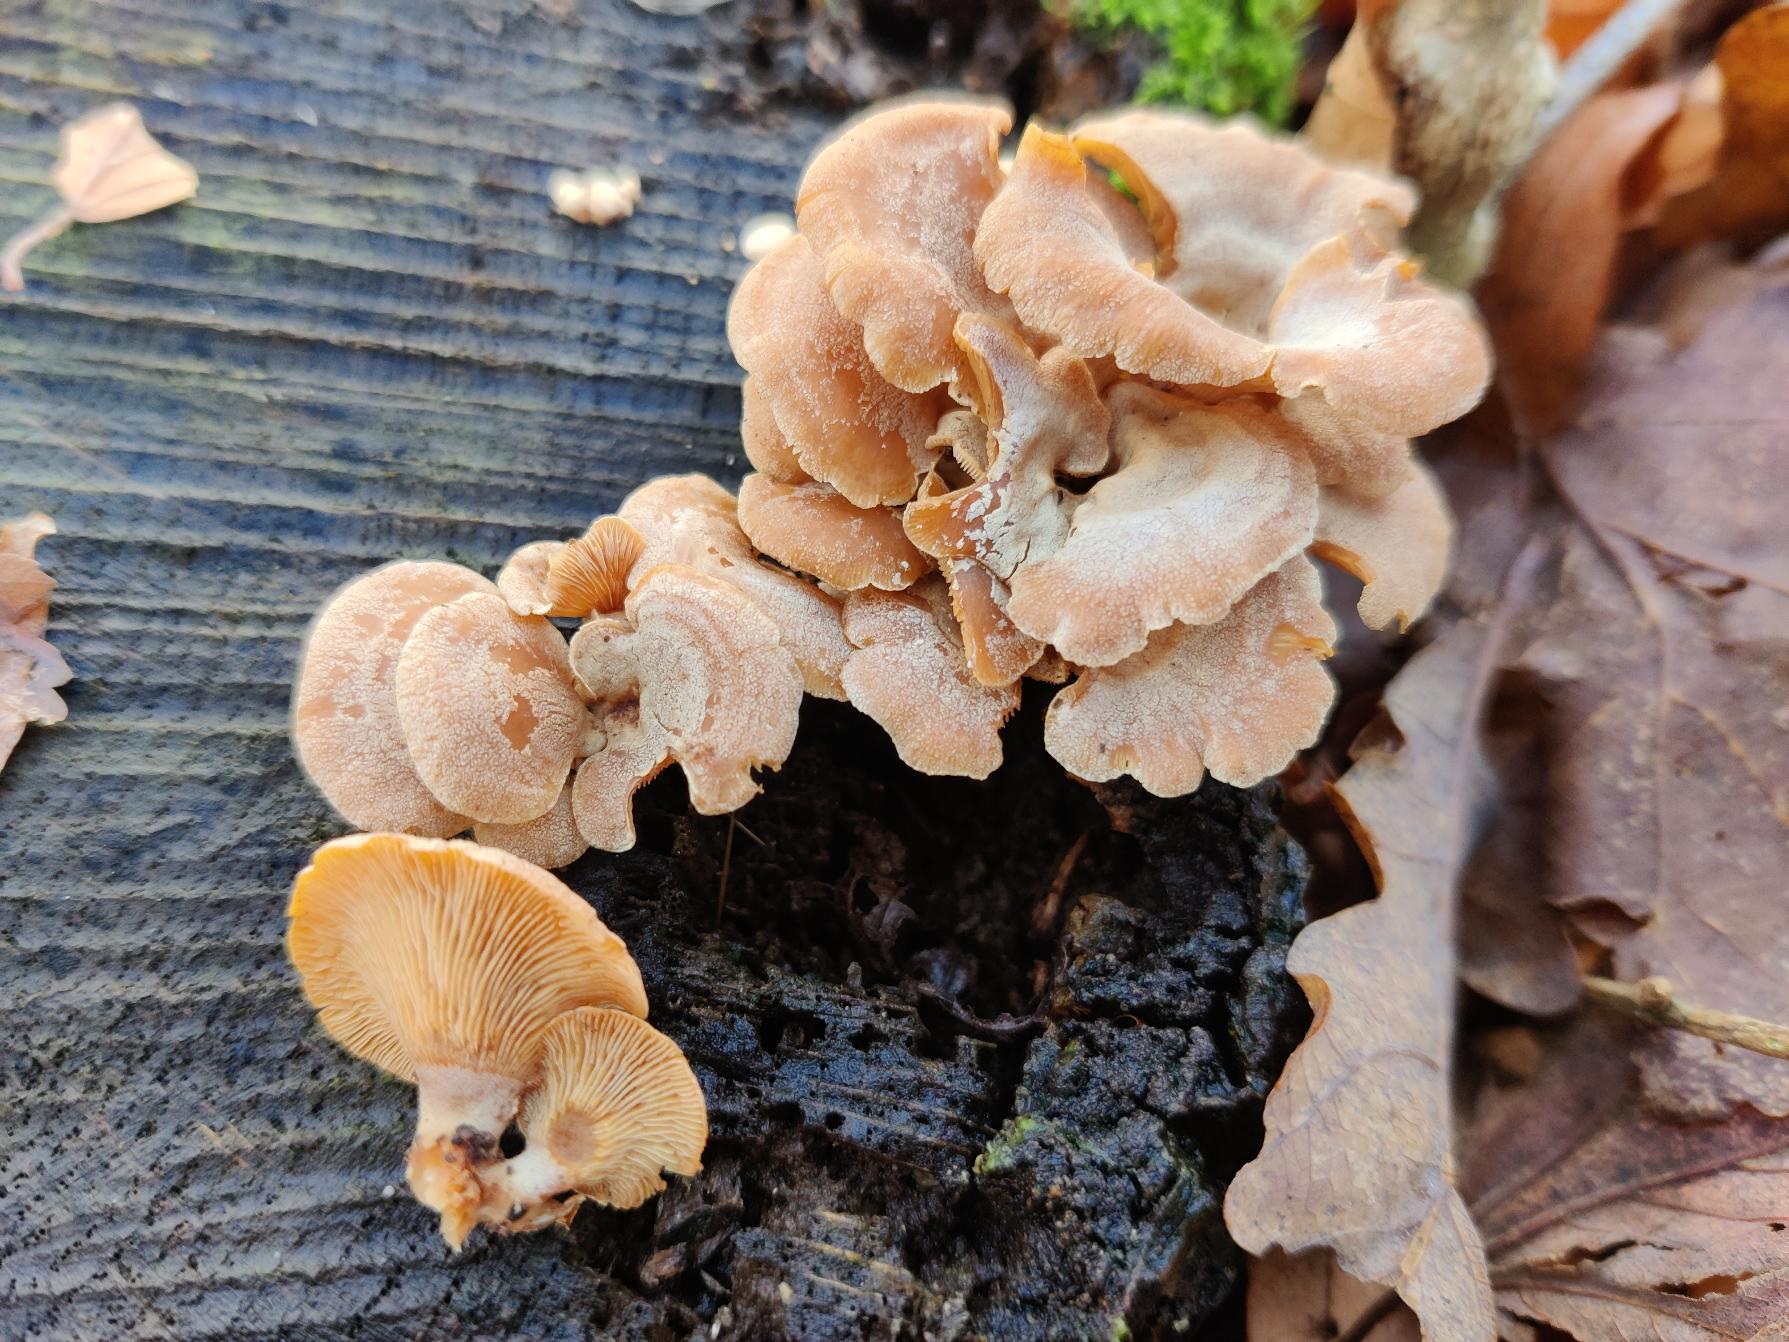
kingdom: Fungi
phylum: Basidiomycota
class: Agaricomycetes
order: Agaricales
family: Mycenaceae
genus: Panellus
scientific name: Panellus stipticus
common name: Kliddet epaulethat
